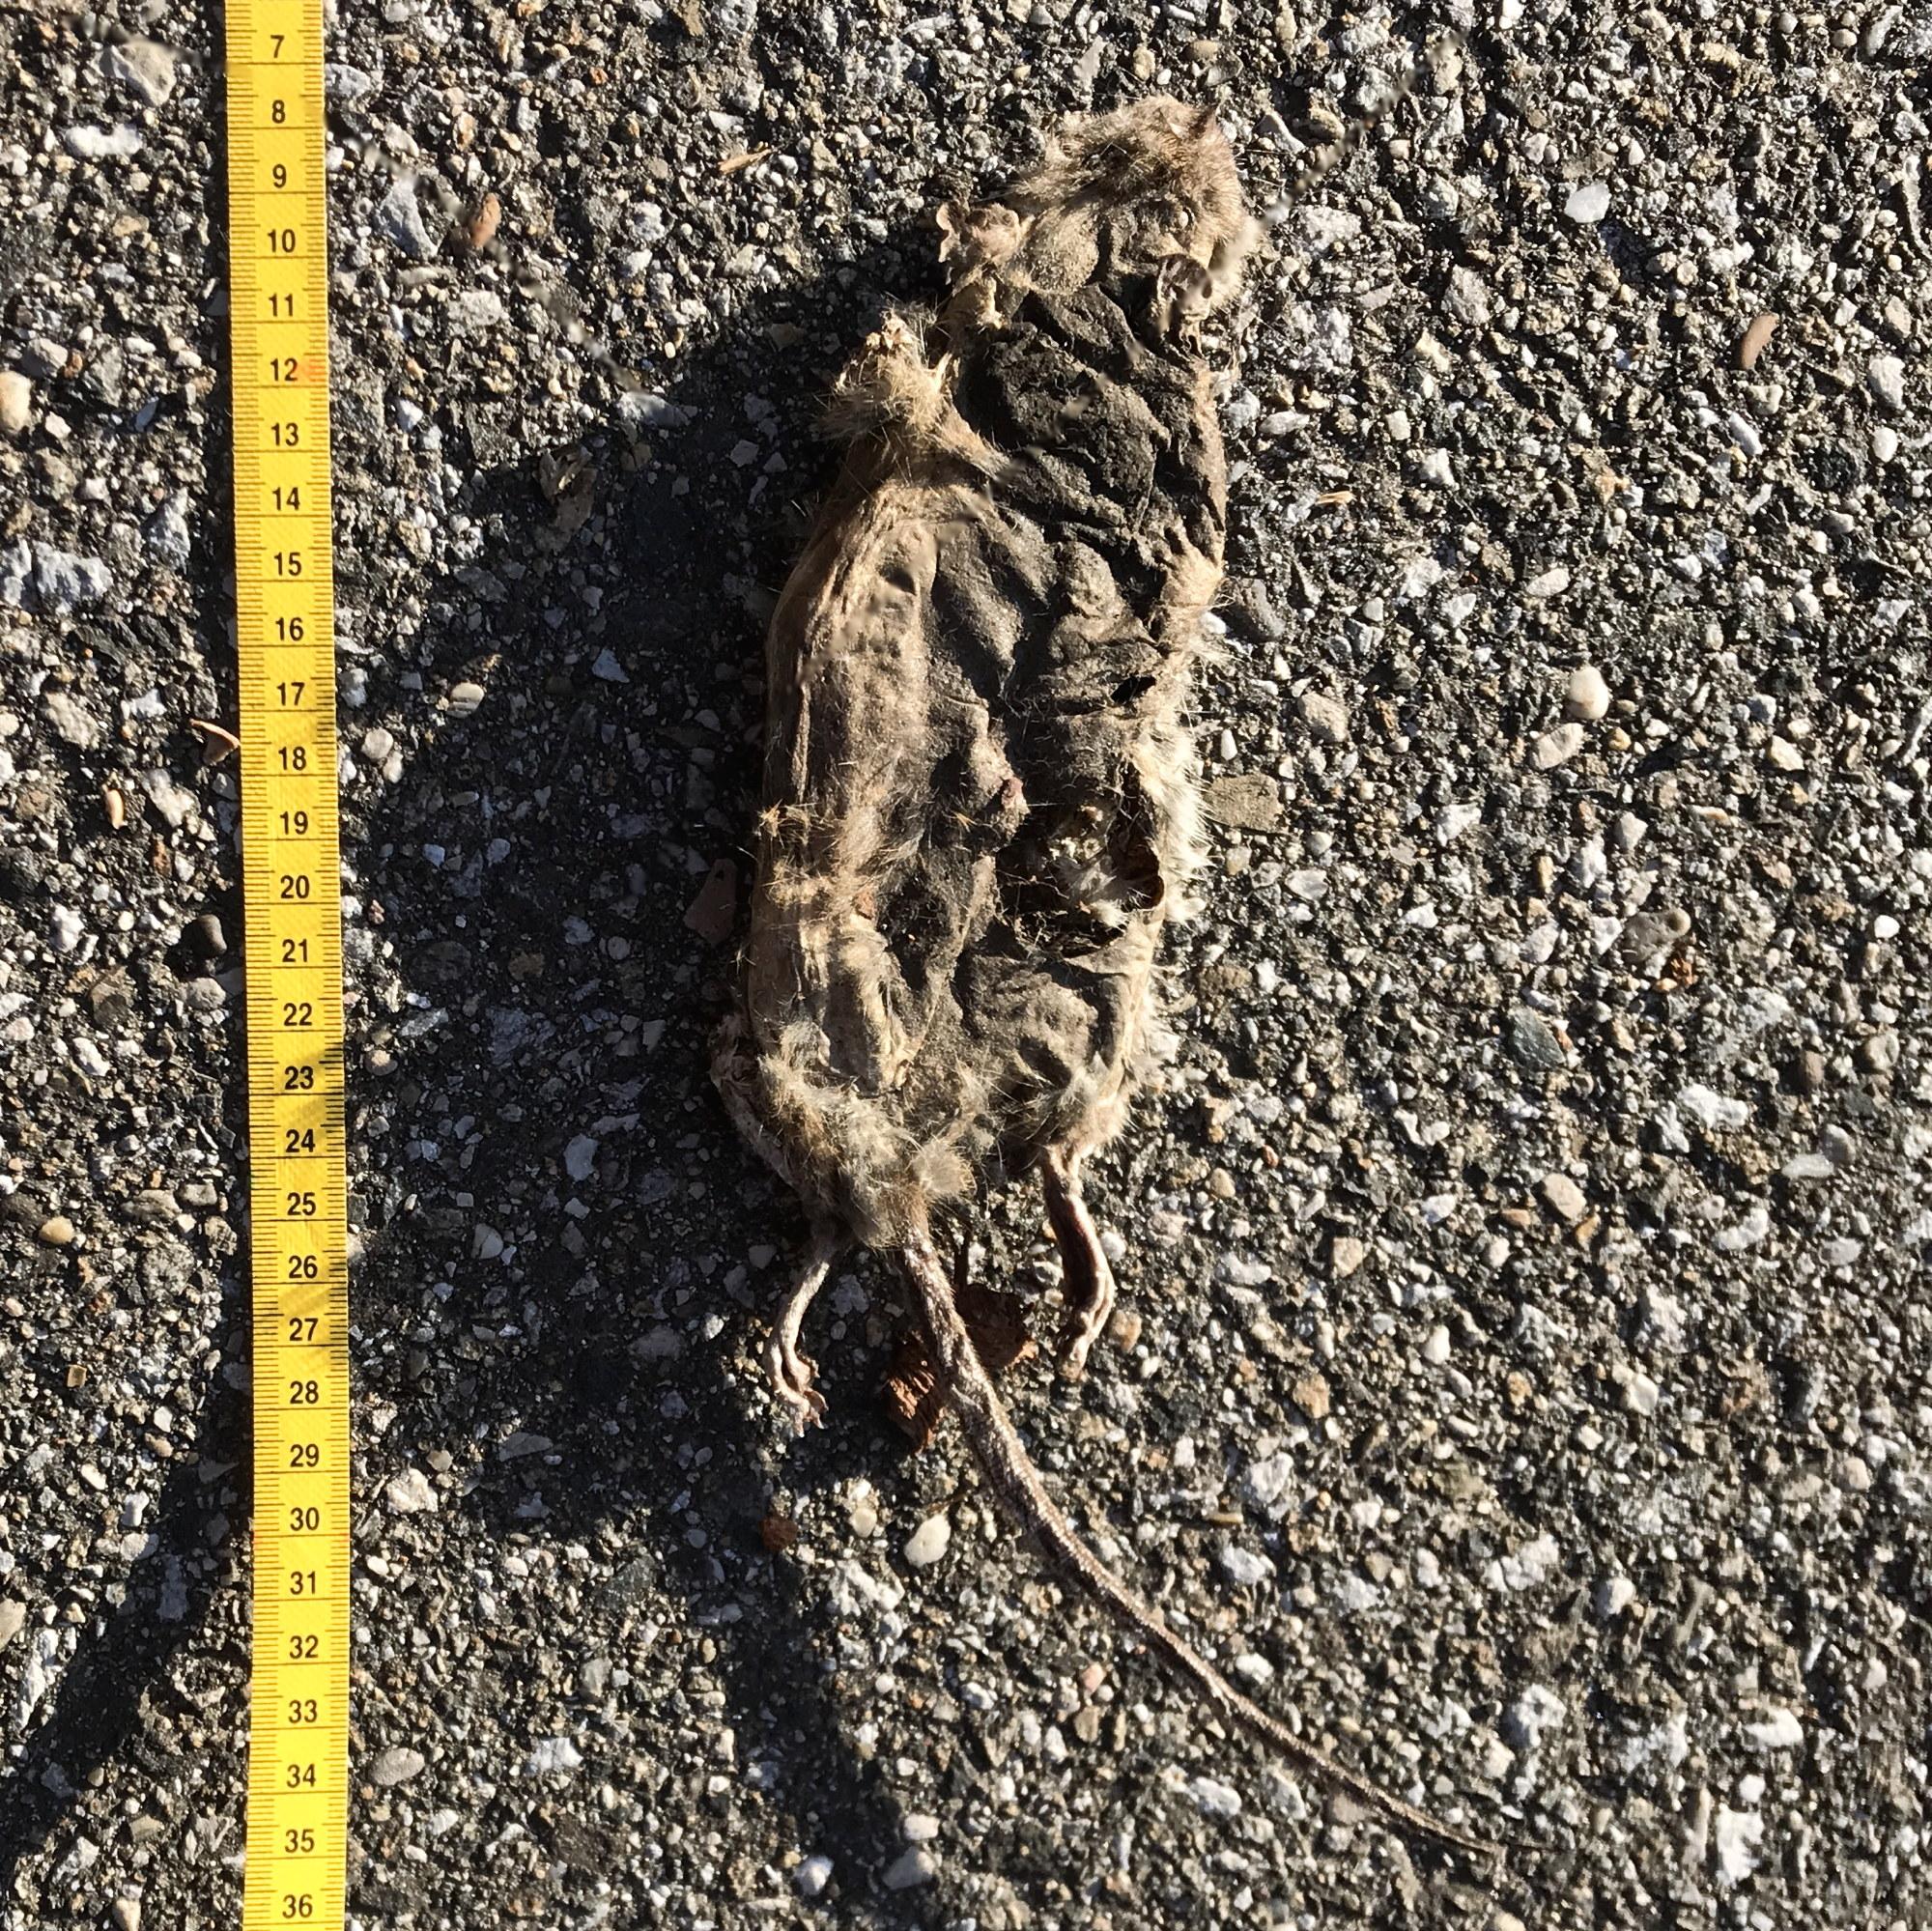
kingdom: Animalia
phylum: Chordata
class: Mammalia
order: Rodentia
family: Muridae
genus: Rattus
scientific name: Rattus
